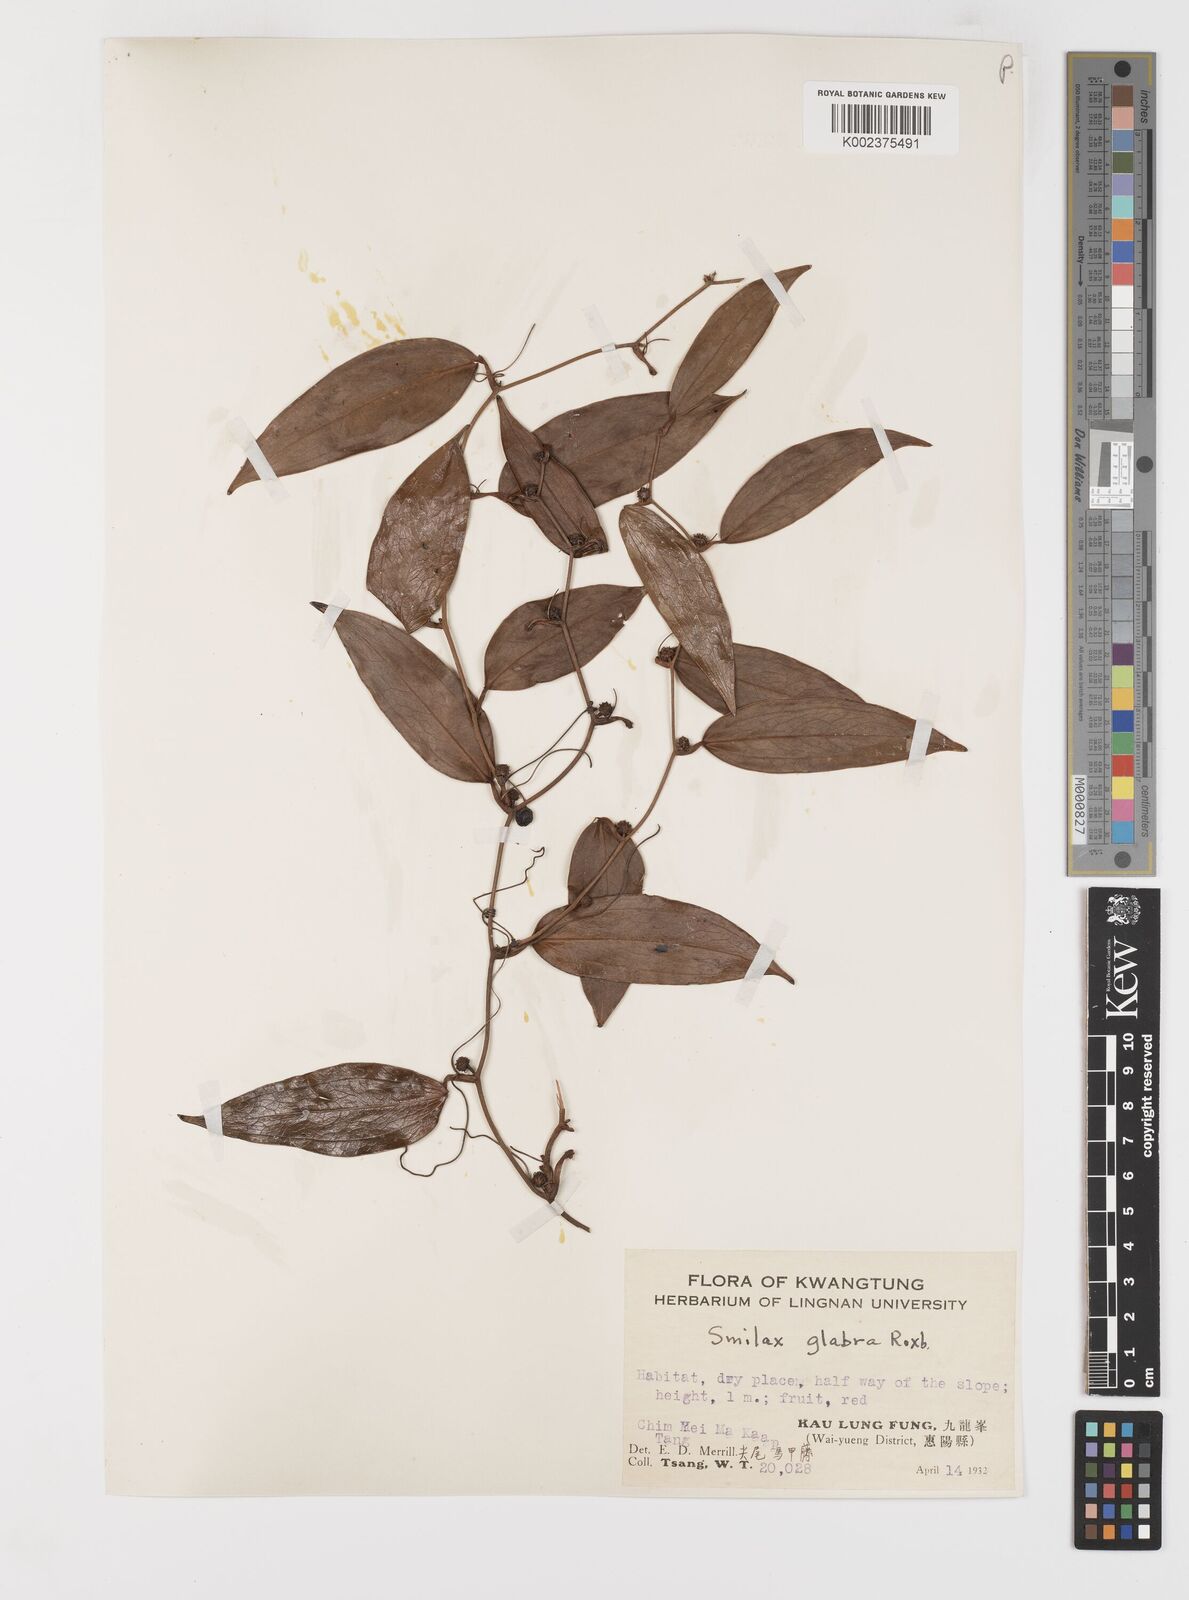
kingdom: Plantae
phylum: Tracheophyta
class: Liliopsida
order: Liliales
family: Smilacaceae
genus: Smilax
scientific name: Smilax glabra
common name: Chinese smilax
